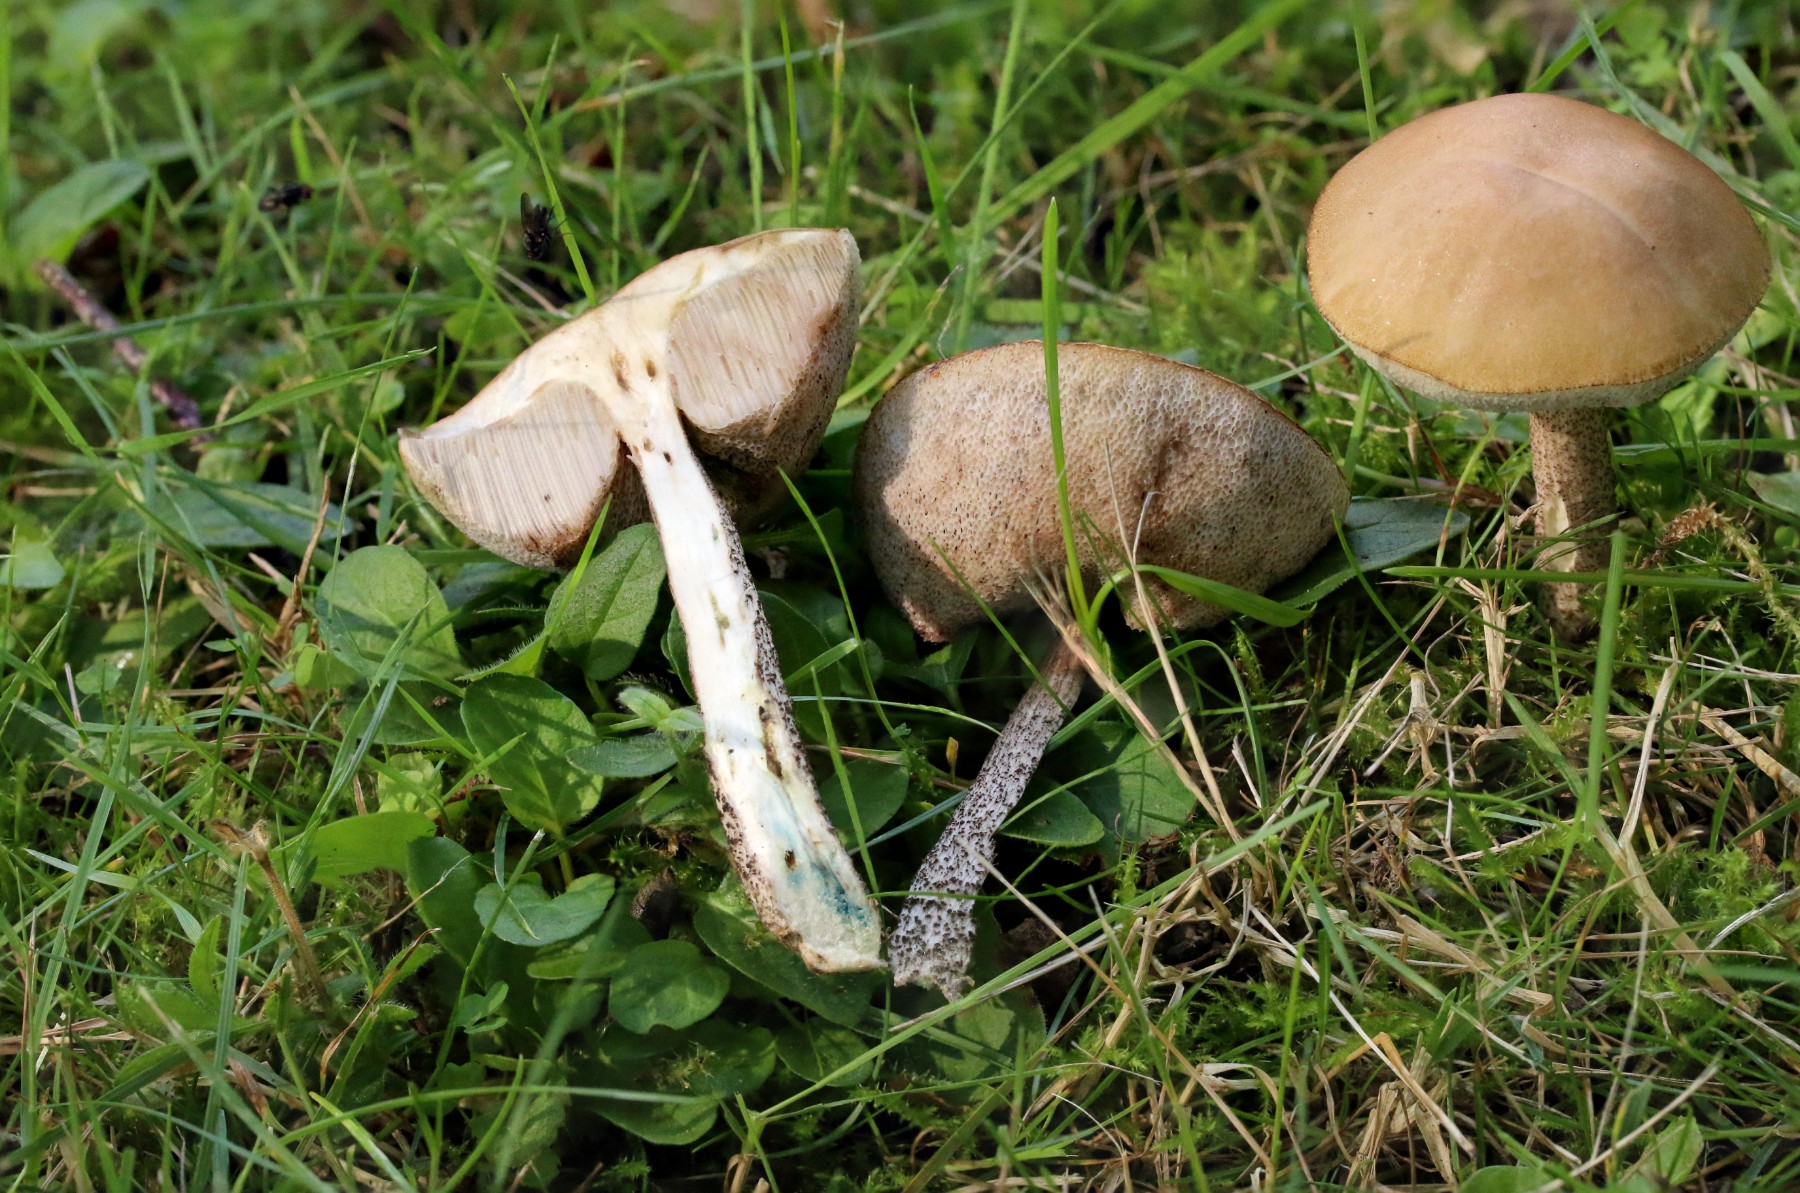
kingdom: Fungi
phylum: Basidiomycota
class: Agaricomycetes
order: Boletales
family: Boletaceae
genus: Leccinum
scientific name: Leccinum schistophilum
